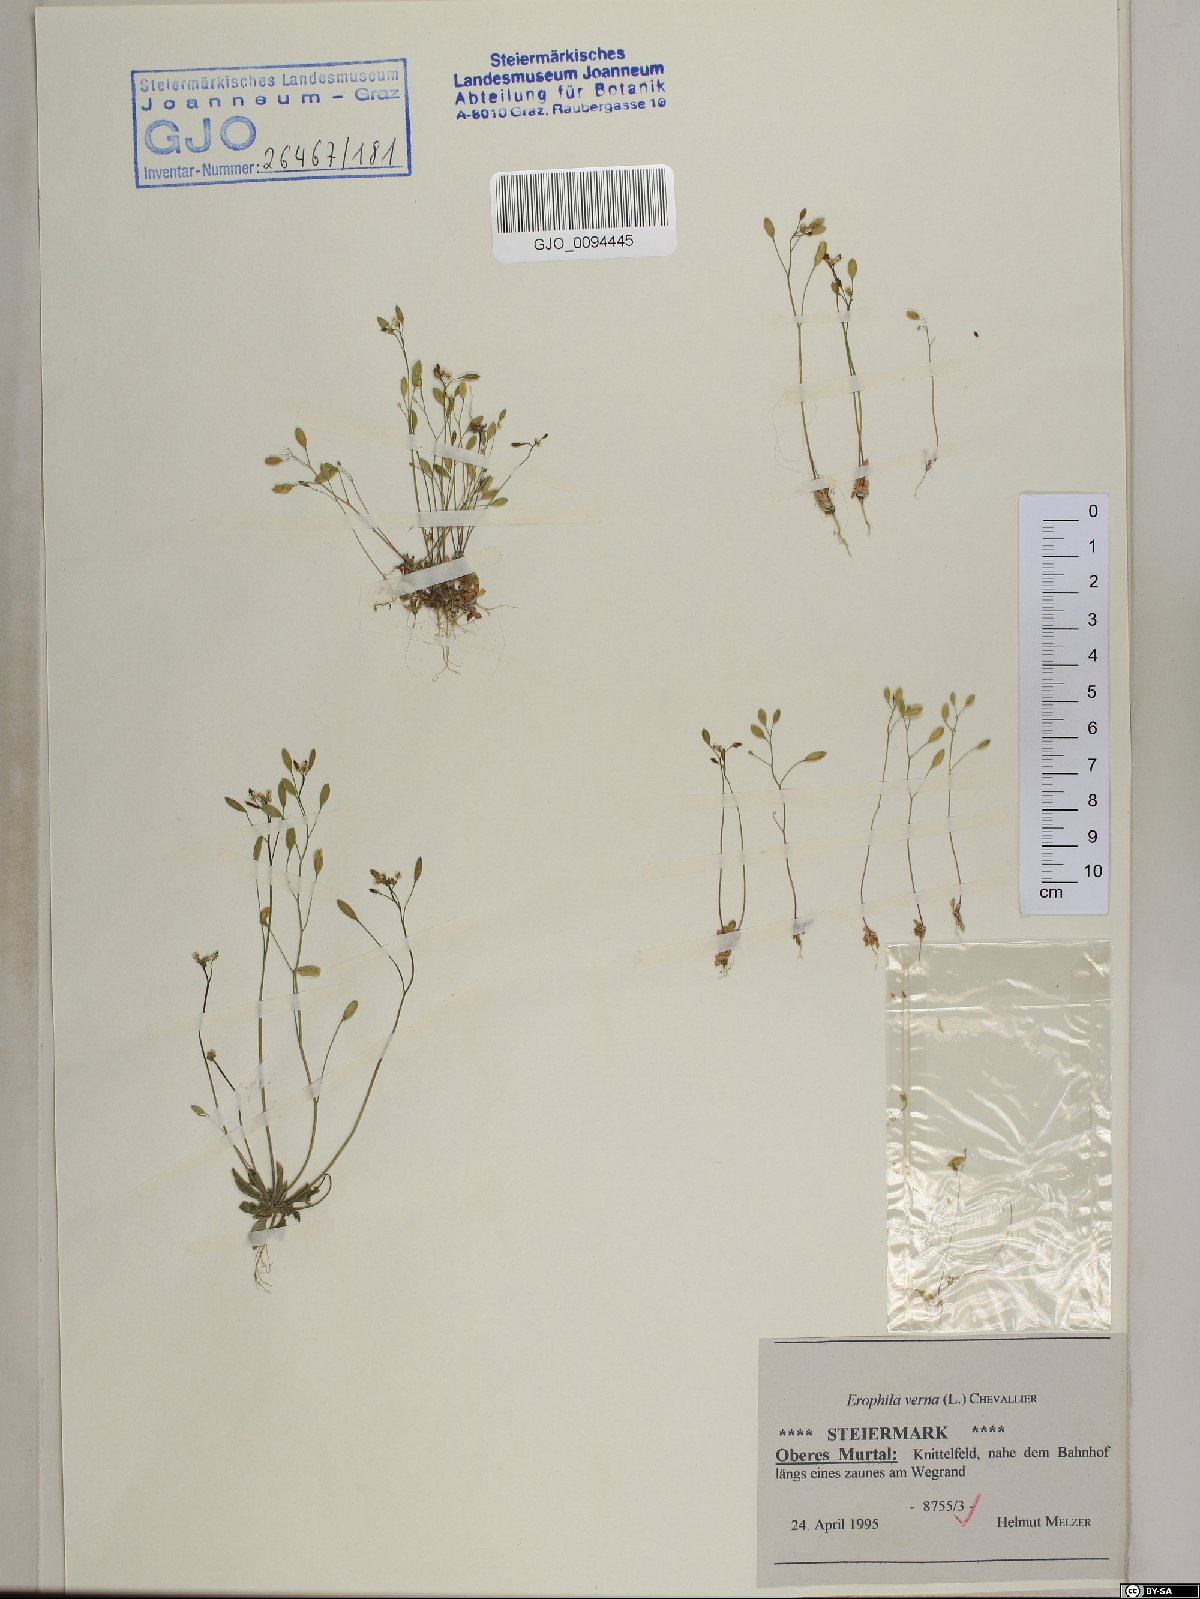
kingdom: Plantae
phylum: Tracheophyta
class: Magnoliopsida
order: Brassicales
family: Brassicaceae
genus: Draba
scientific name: Draba verna
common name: Spring draba
